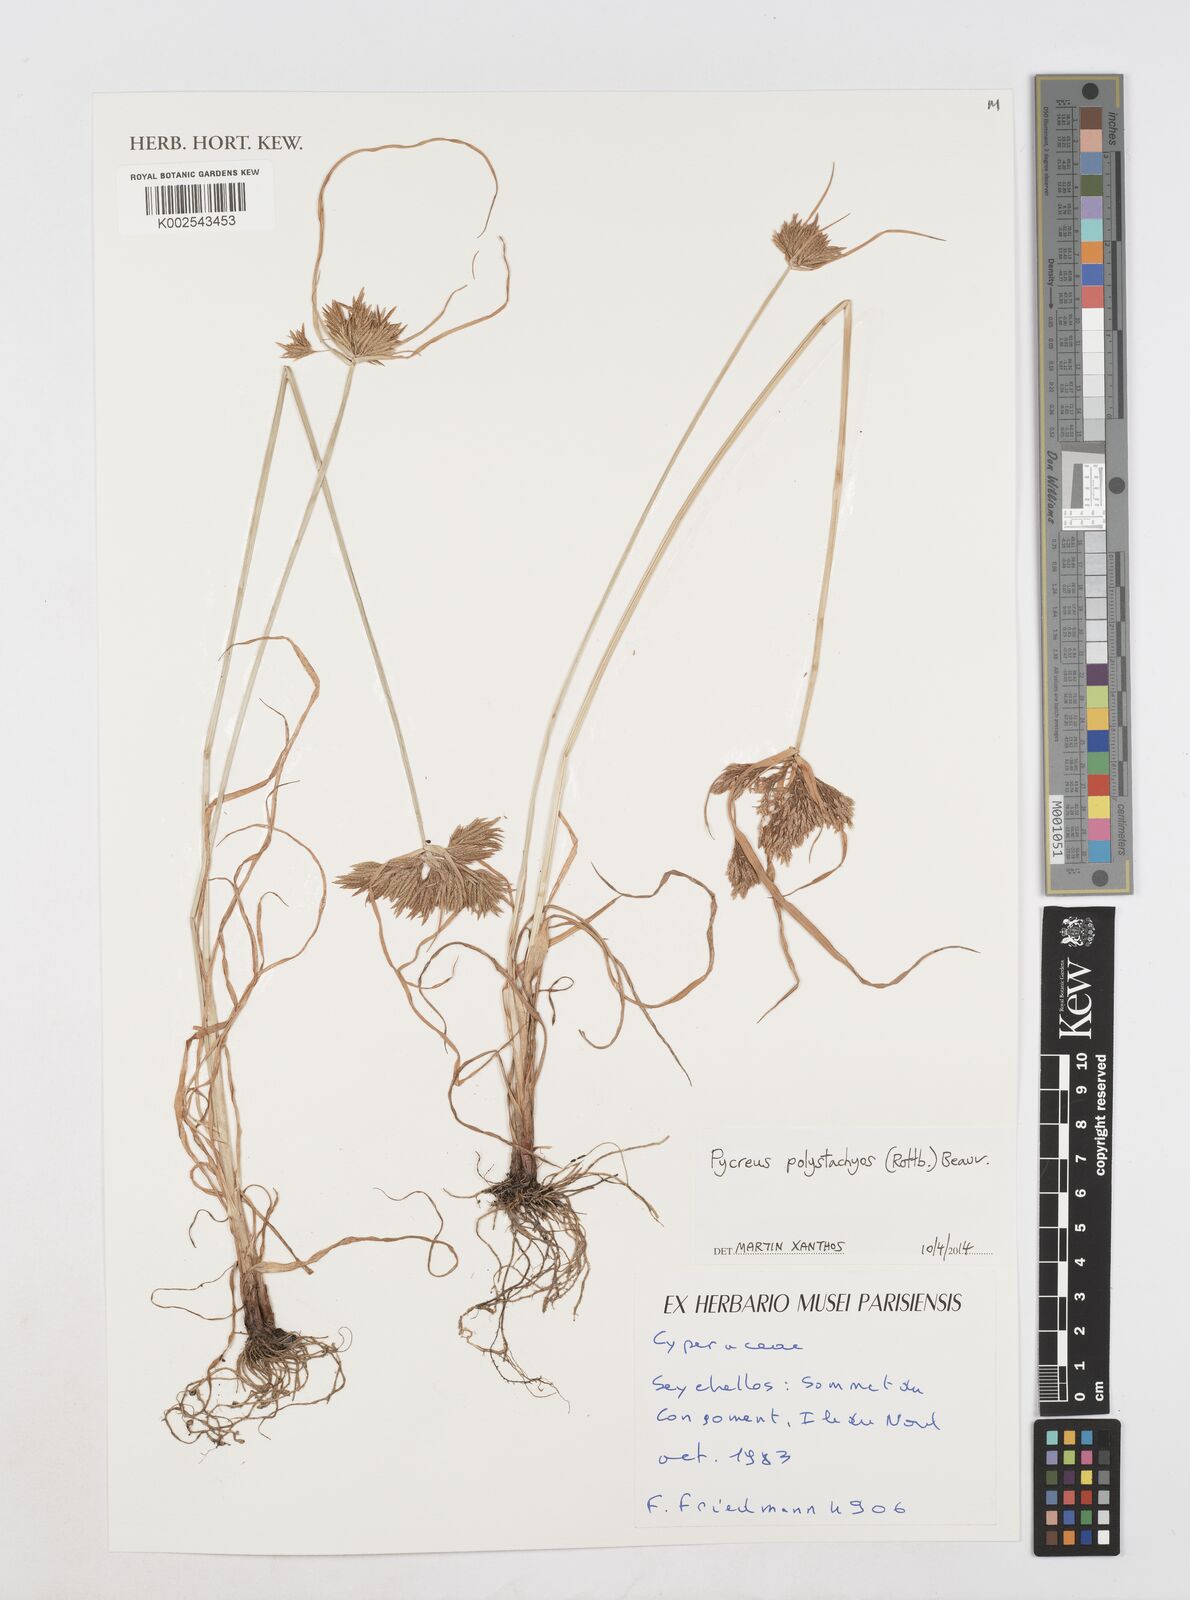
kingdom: Plantae
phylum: Tracheophyta
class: Liliopsida
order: Poales
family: Cyperaceae
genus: Cyperus
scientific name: Cyperus polystachyos
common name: Bunchy flat sedge
